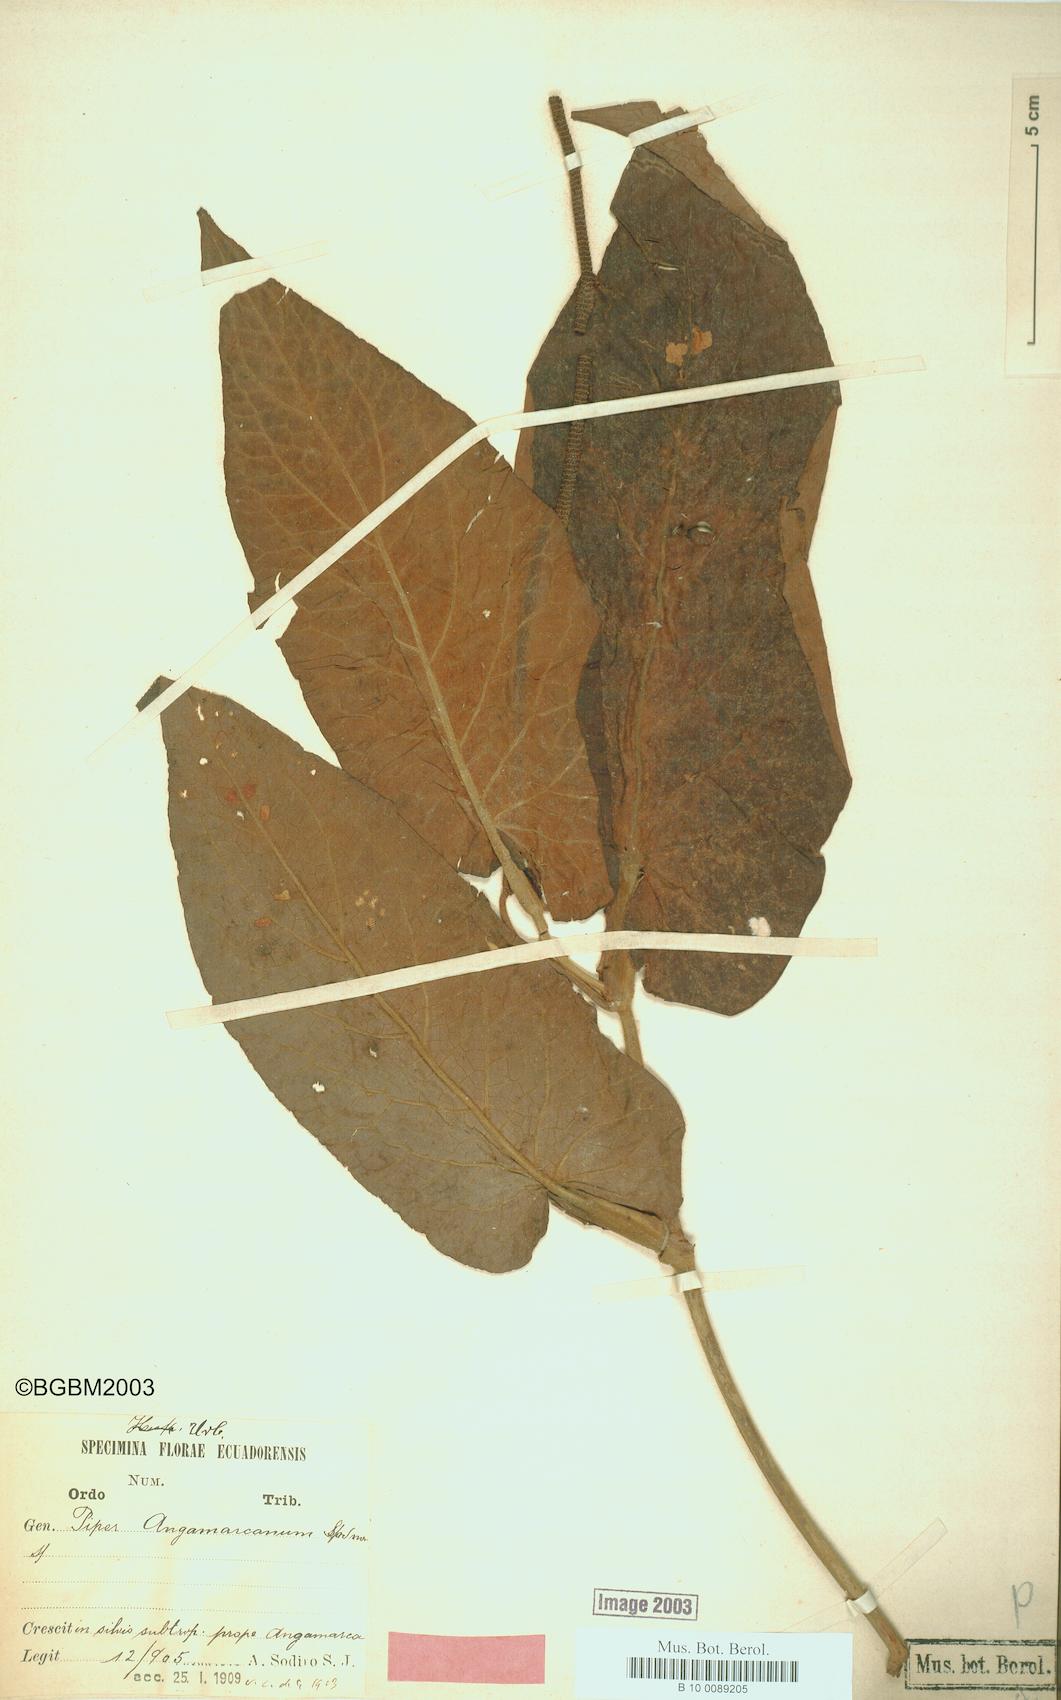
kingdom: Plantae
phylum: Tracheophyta
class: Magnoliopsida
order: Piperales
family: Piperaceae
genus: Piper
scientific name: Piper angamarcanum
